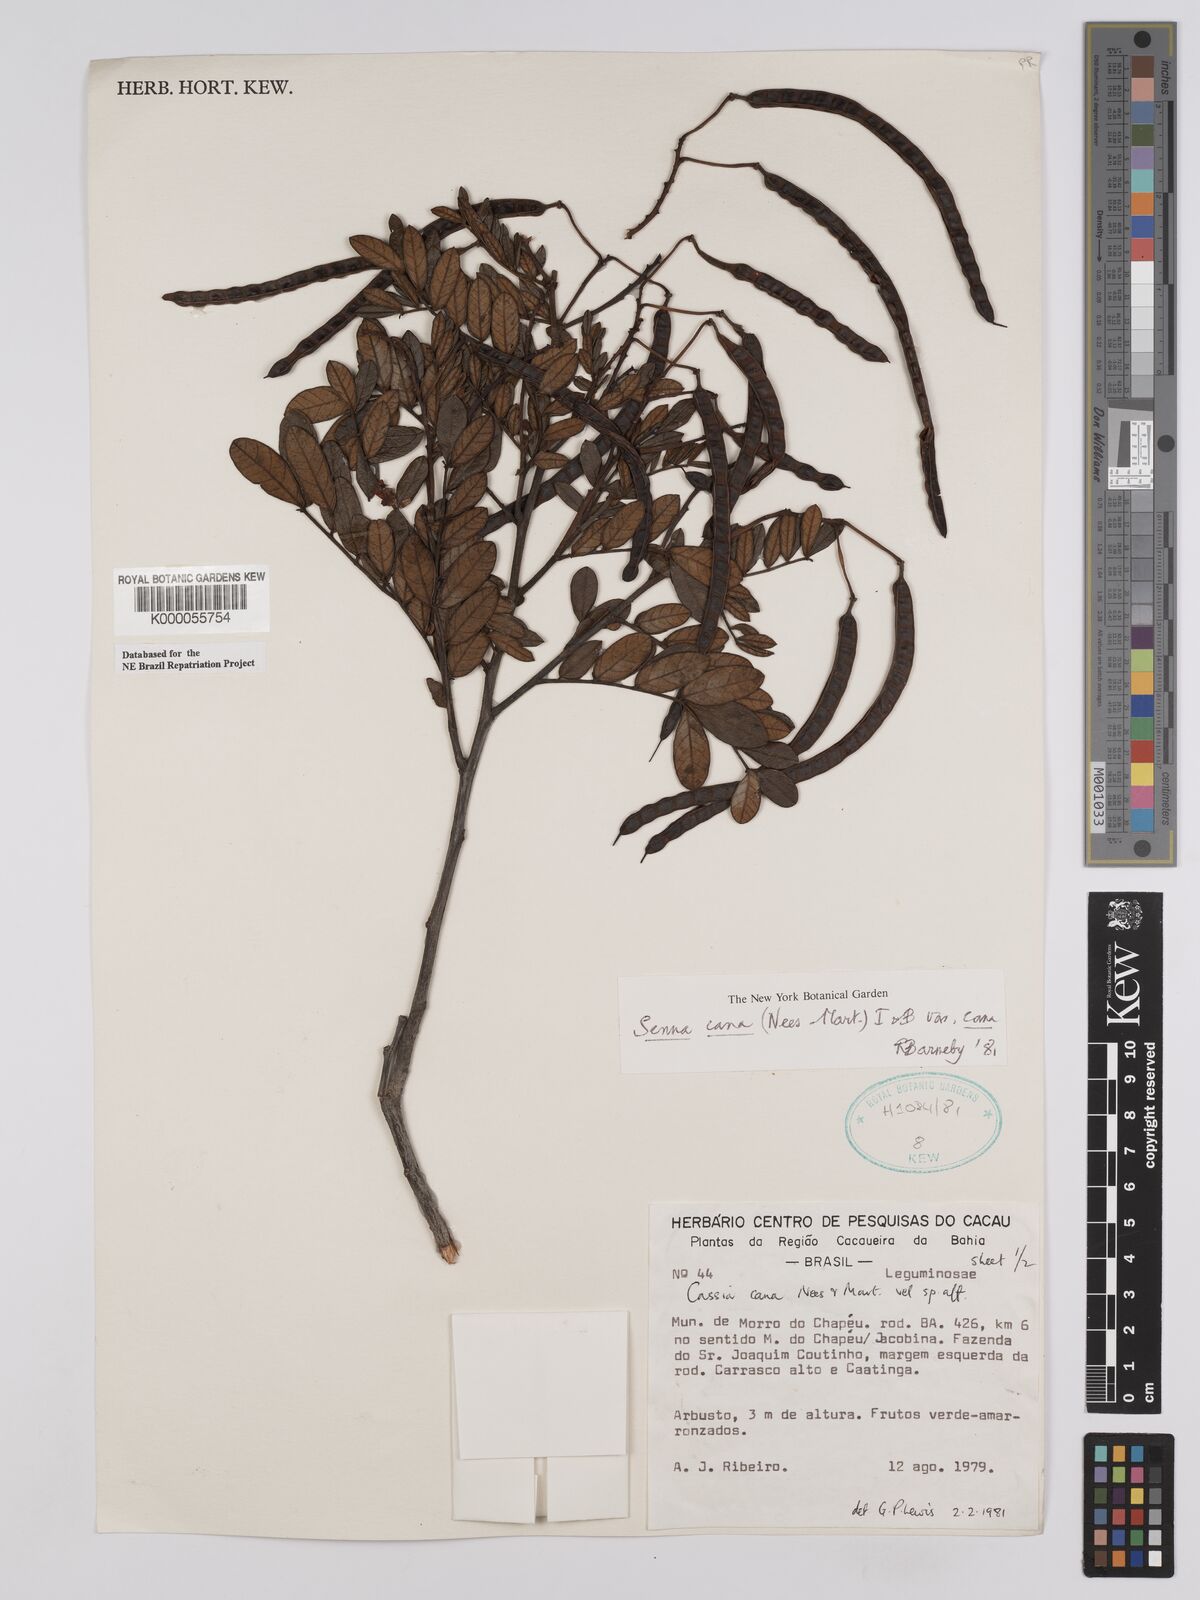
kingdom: Plantae
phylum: Tracheophyta
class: Magnoliopsida
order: Fabales
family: Fabaceae
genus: Senna
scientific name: Senna cana
